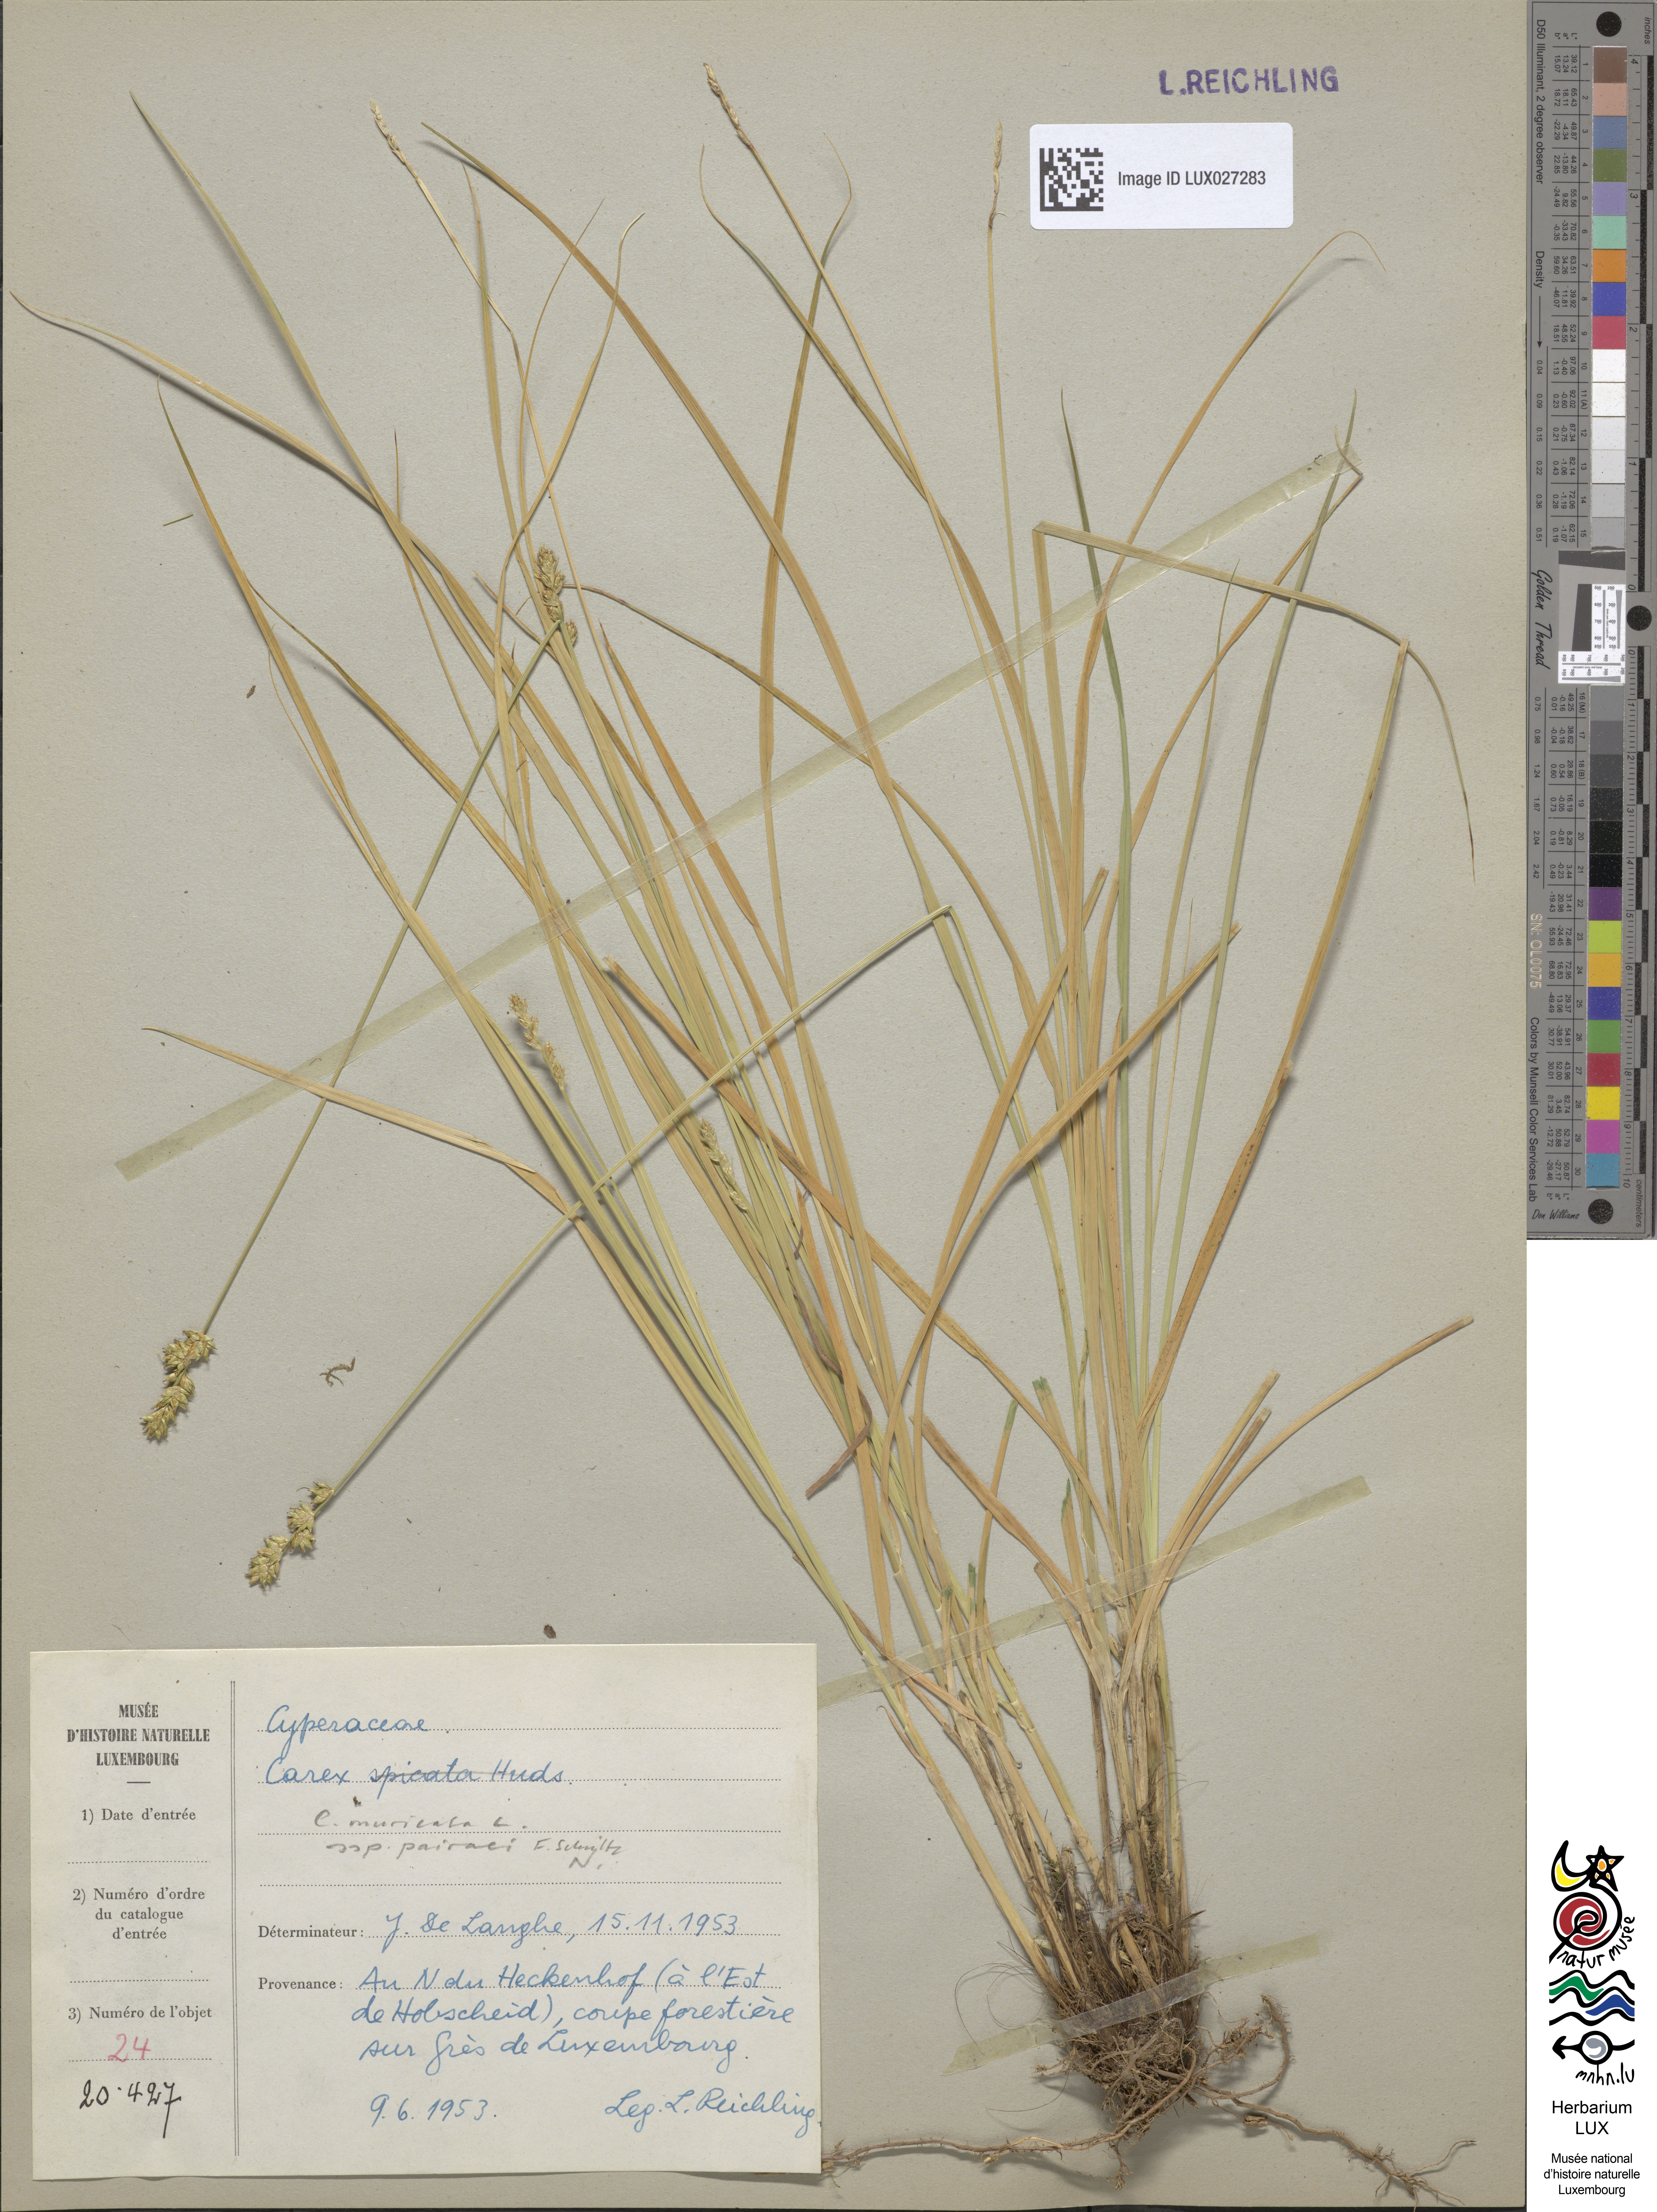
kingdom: Plantae
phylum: Tracheophyta
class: Liliopsida
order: Poales
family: Cyperaceae
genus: Carex
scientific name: Carex pairae
